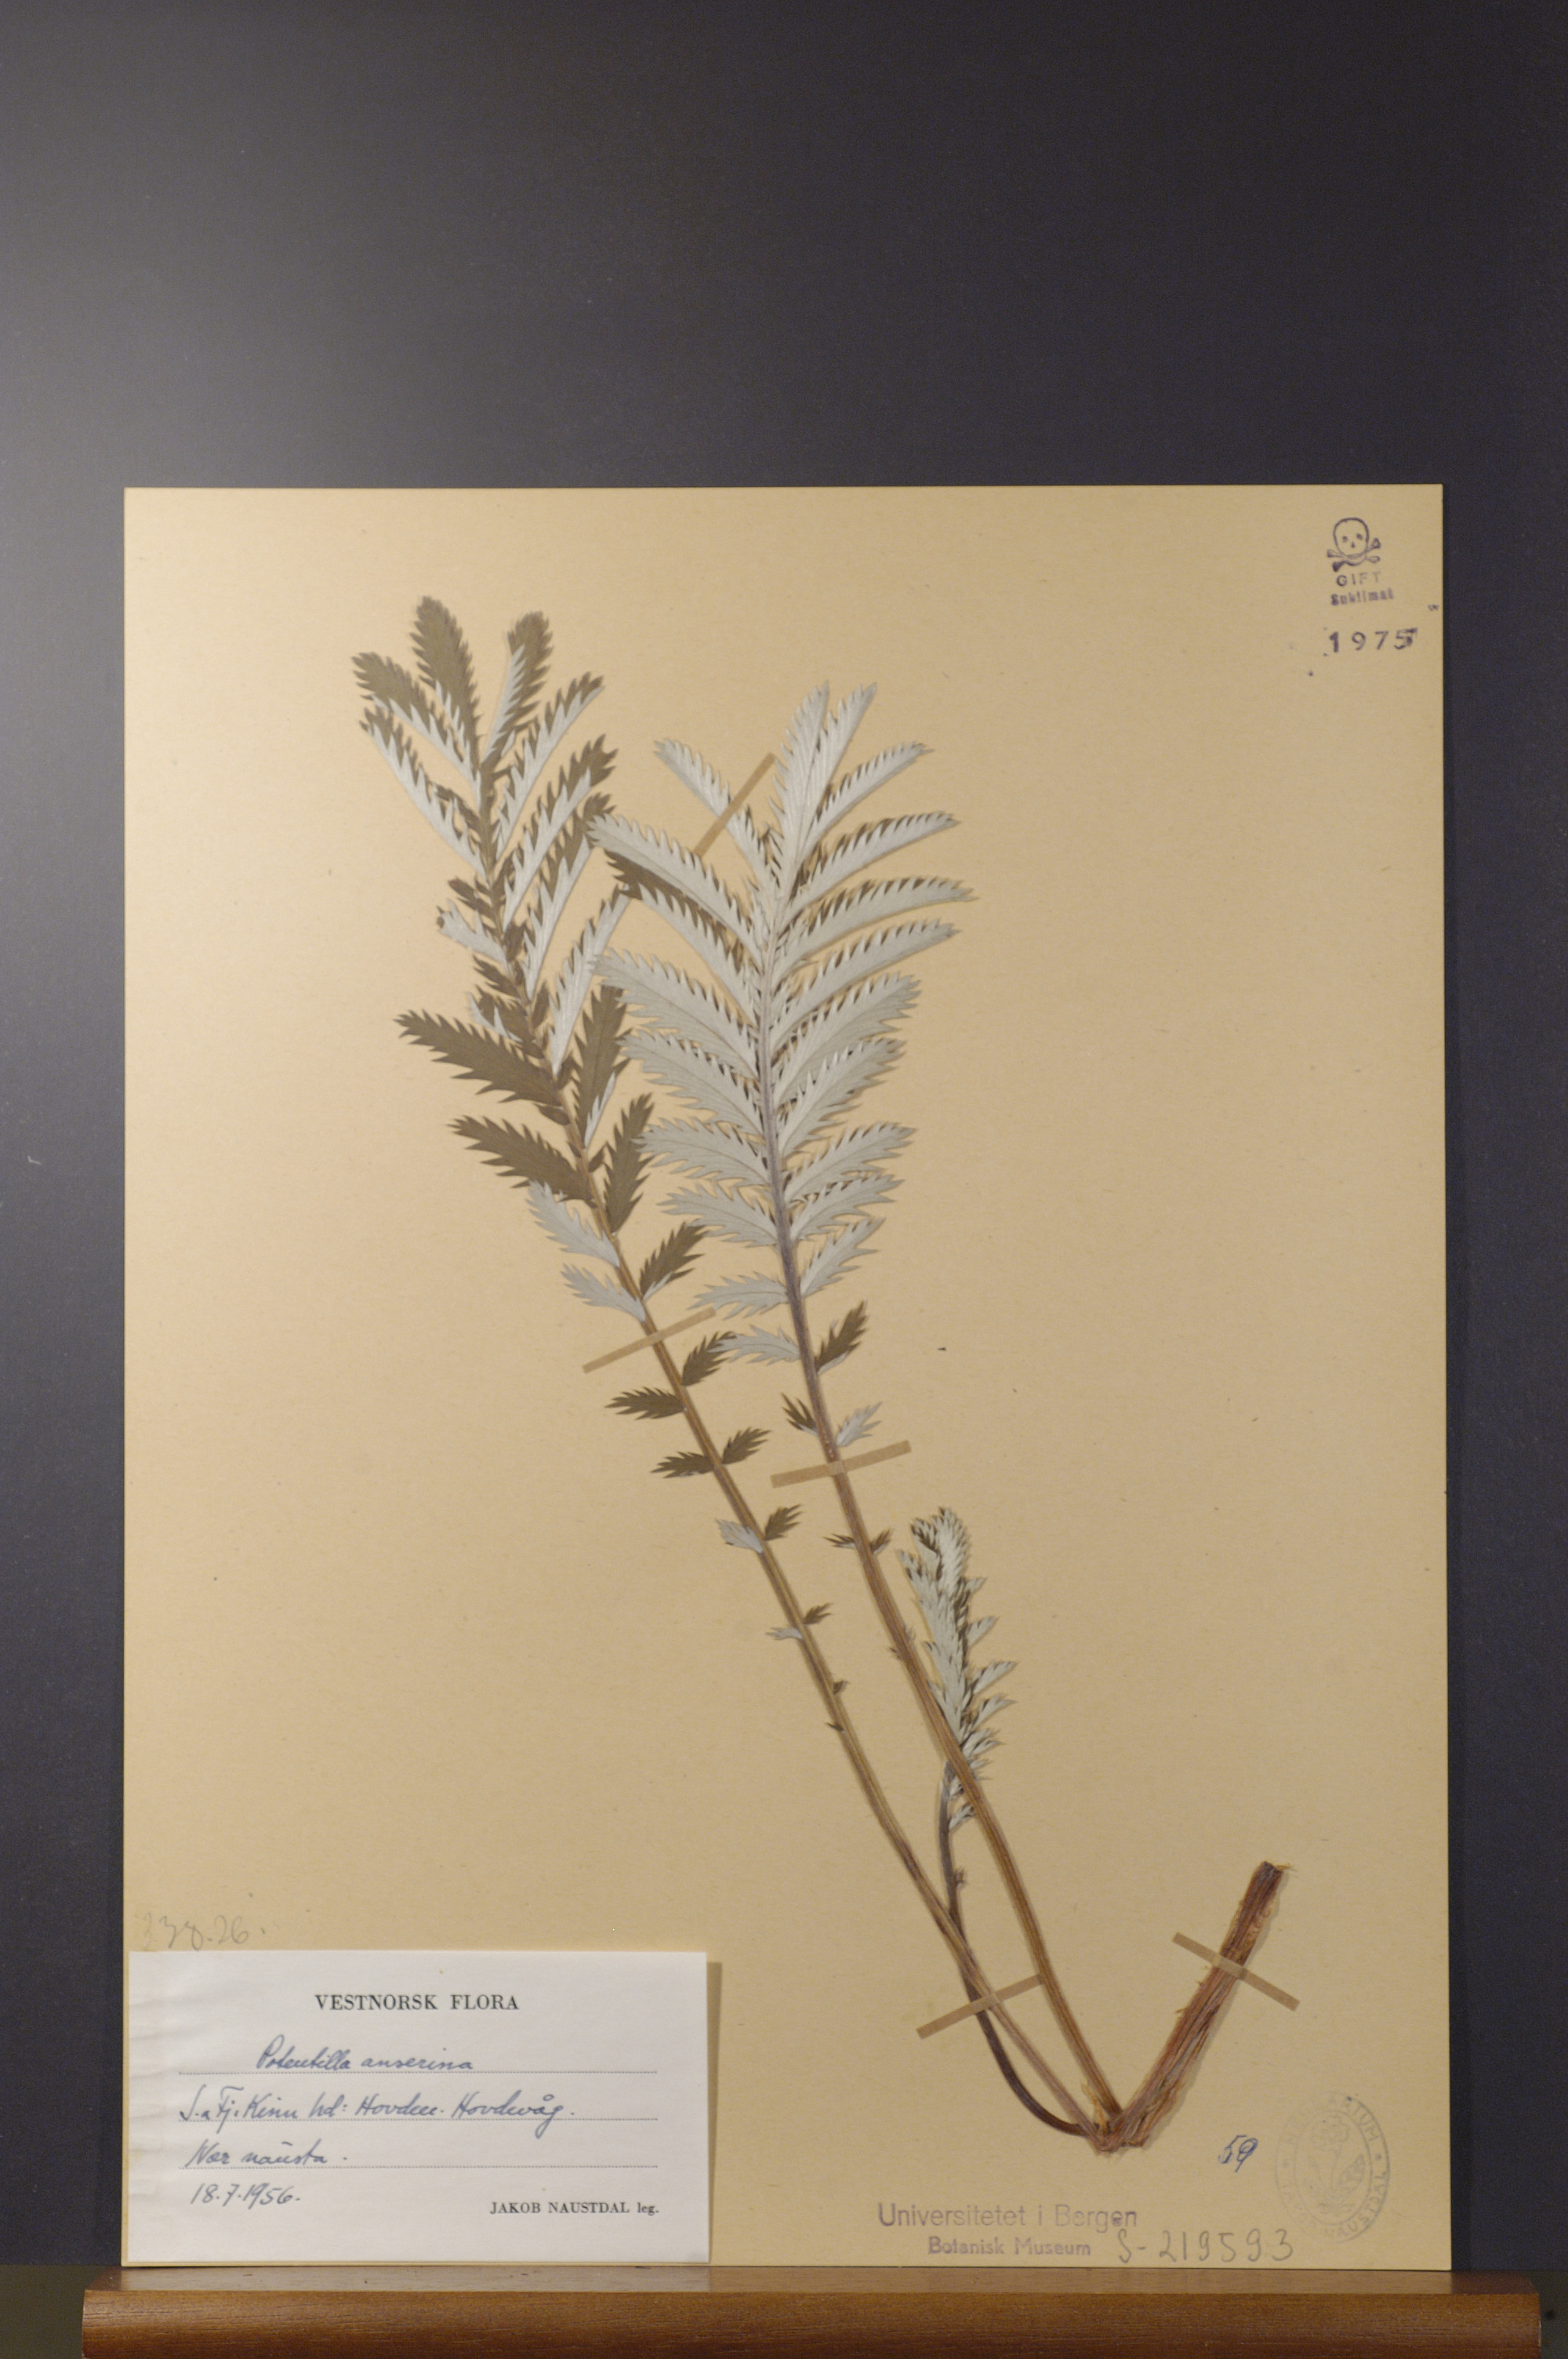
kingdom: Plantae
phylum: Tracheophyta
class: Magnoliopsida
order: Rosales
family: Rosaceae
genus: Argentina
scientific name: Argentina anserina
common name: Common silverweed
